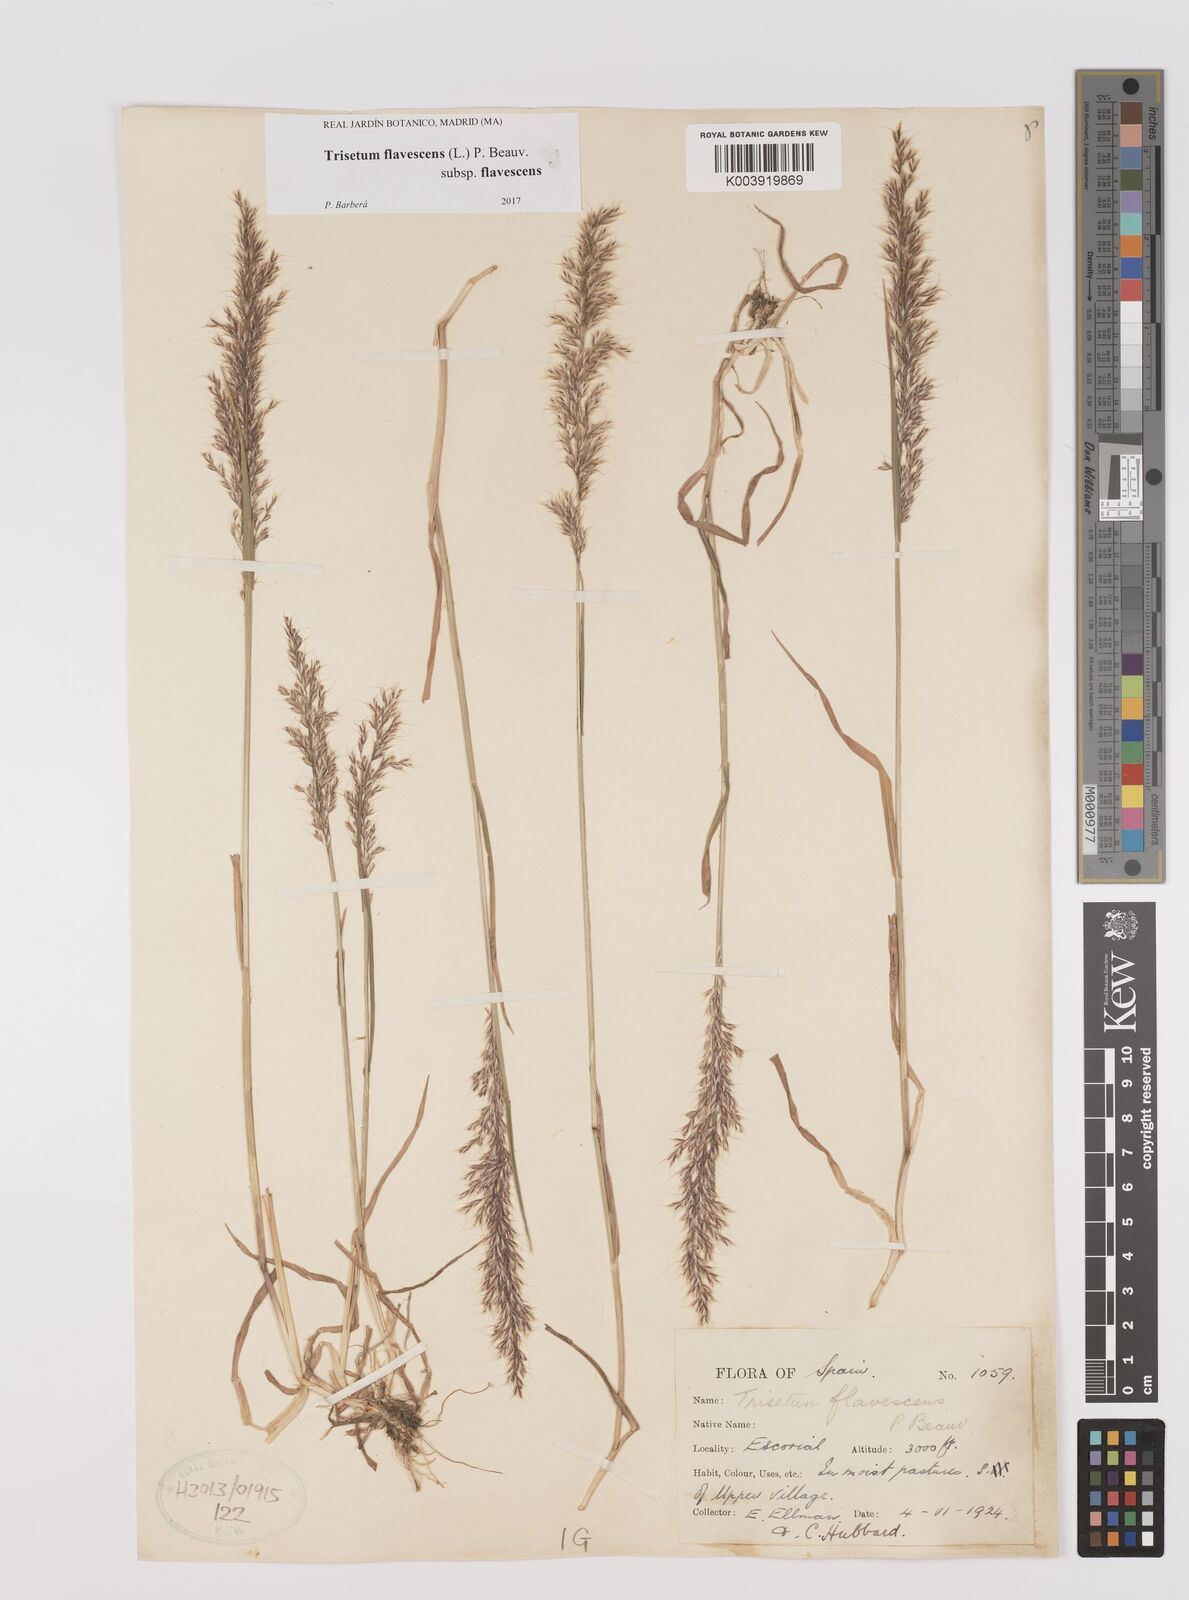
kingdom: Plantae
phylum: Tracheophyta
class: Liliopsida
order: Poales
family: Poaceae
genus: Trisetum
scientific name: Trisetum flavescens
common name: Yellow oat-grass
